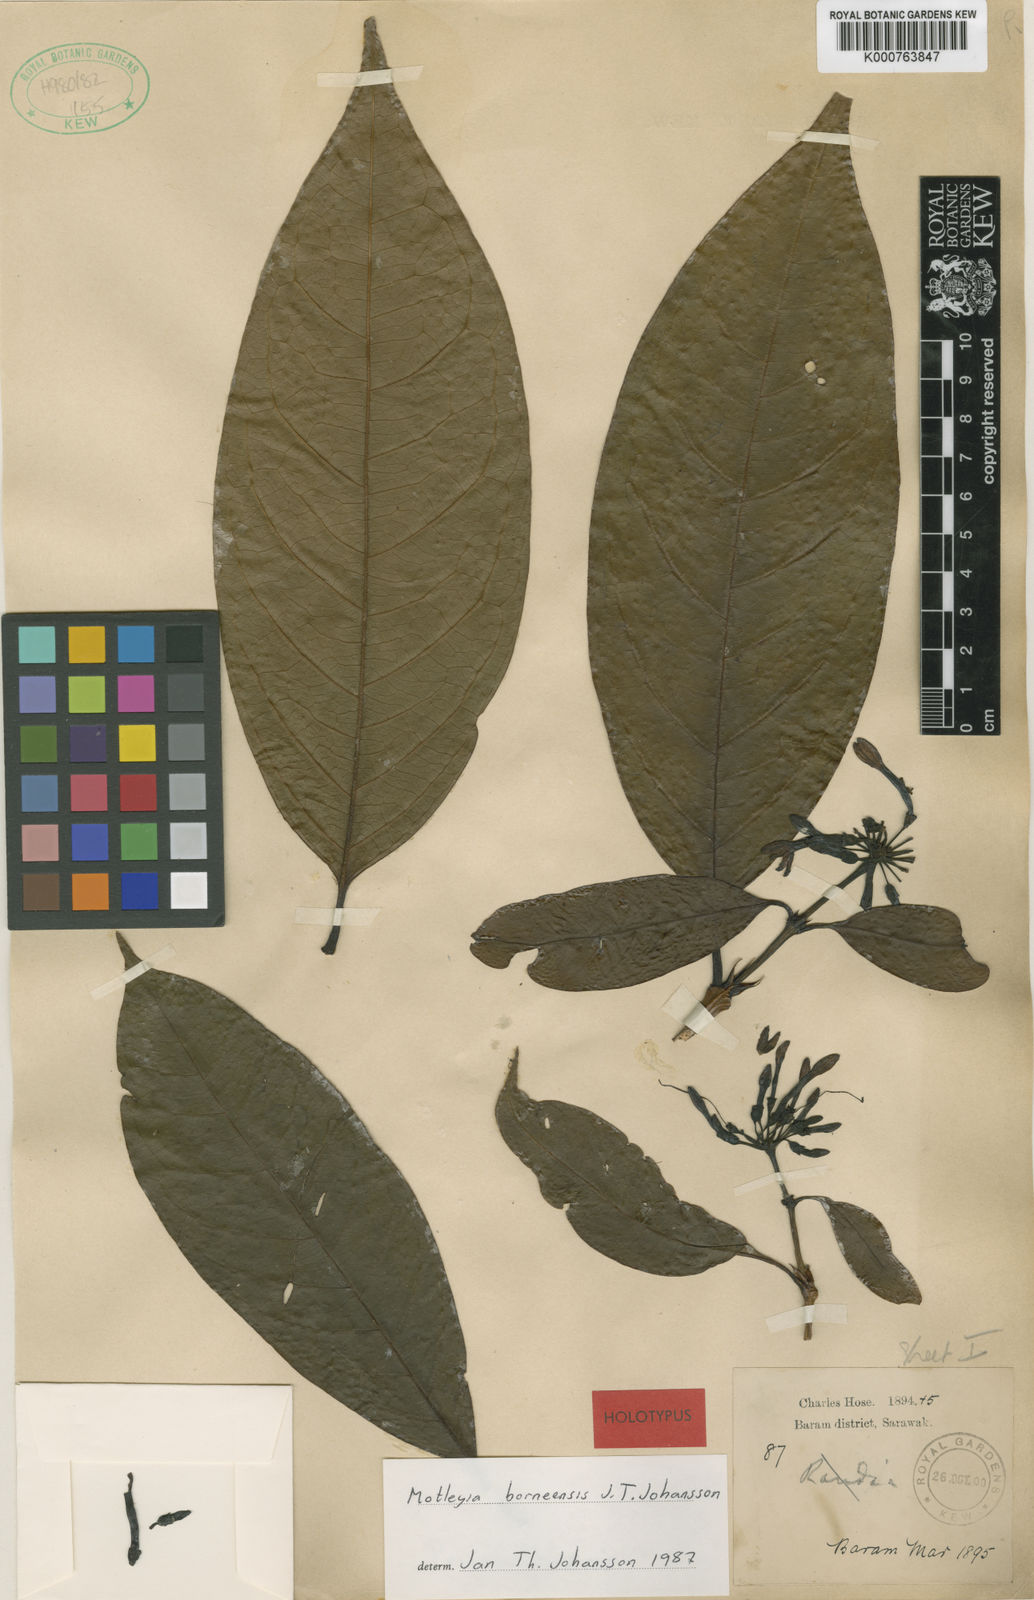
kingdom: Plantae
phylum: Tracheophyta
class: Magnoliopsida
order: Gentianales
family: Rubiaceae
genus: Prismatomeris
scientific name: Prismatomeris borneensis
